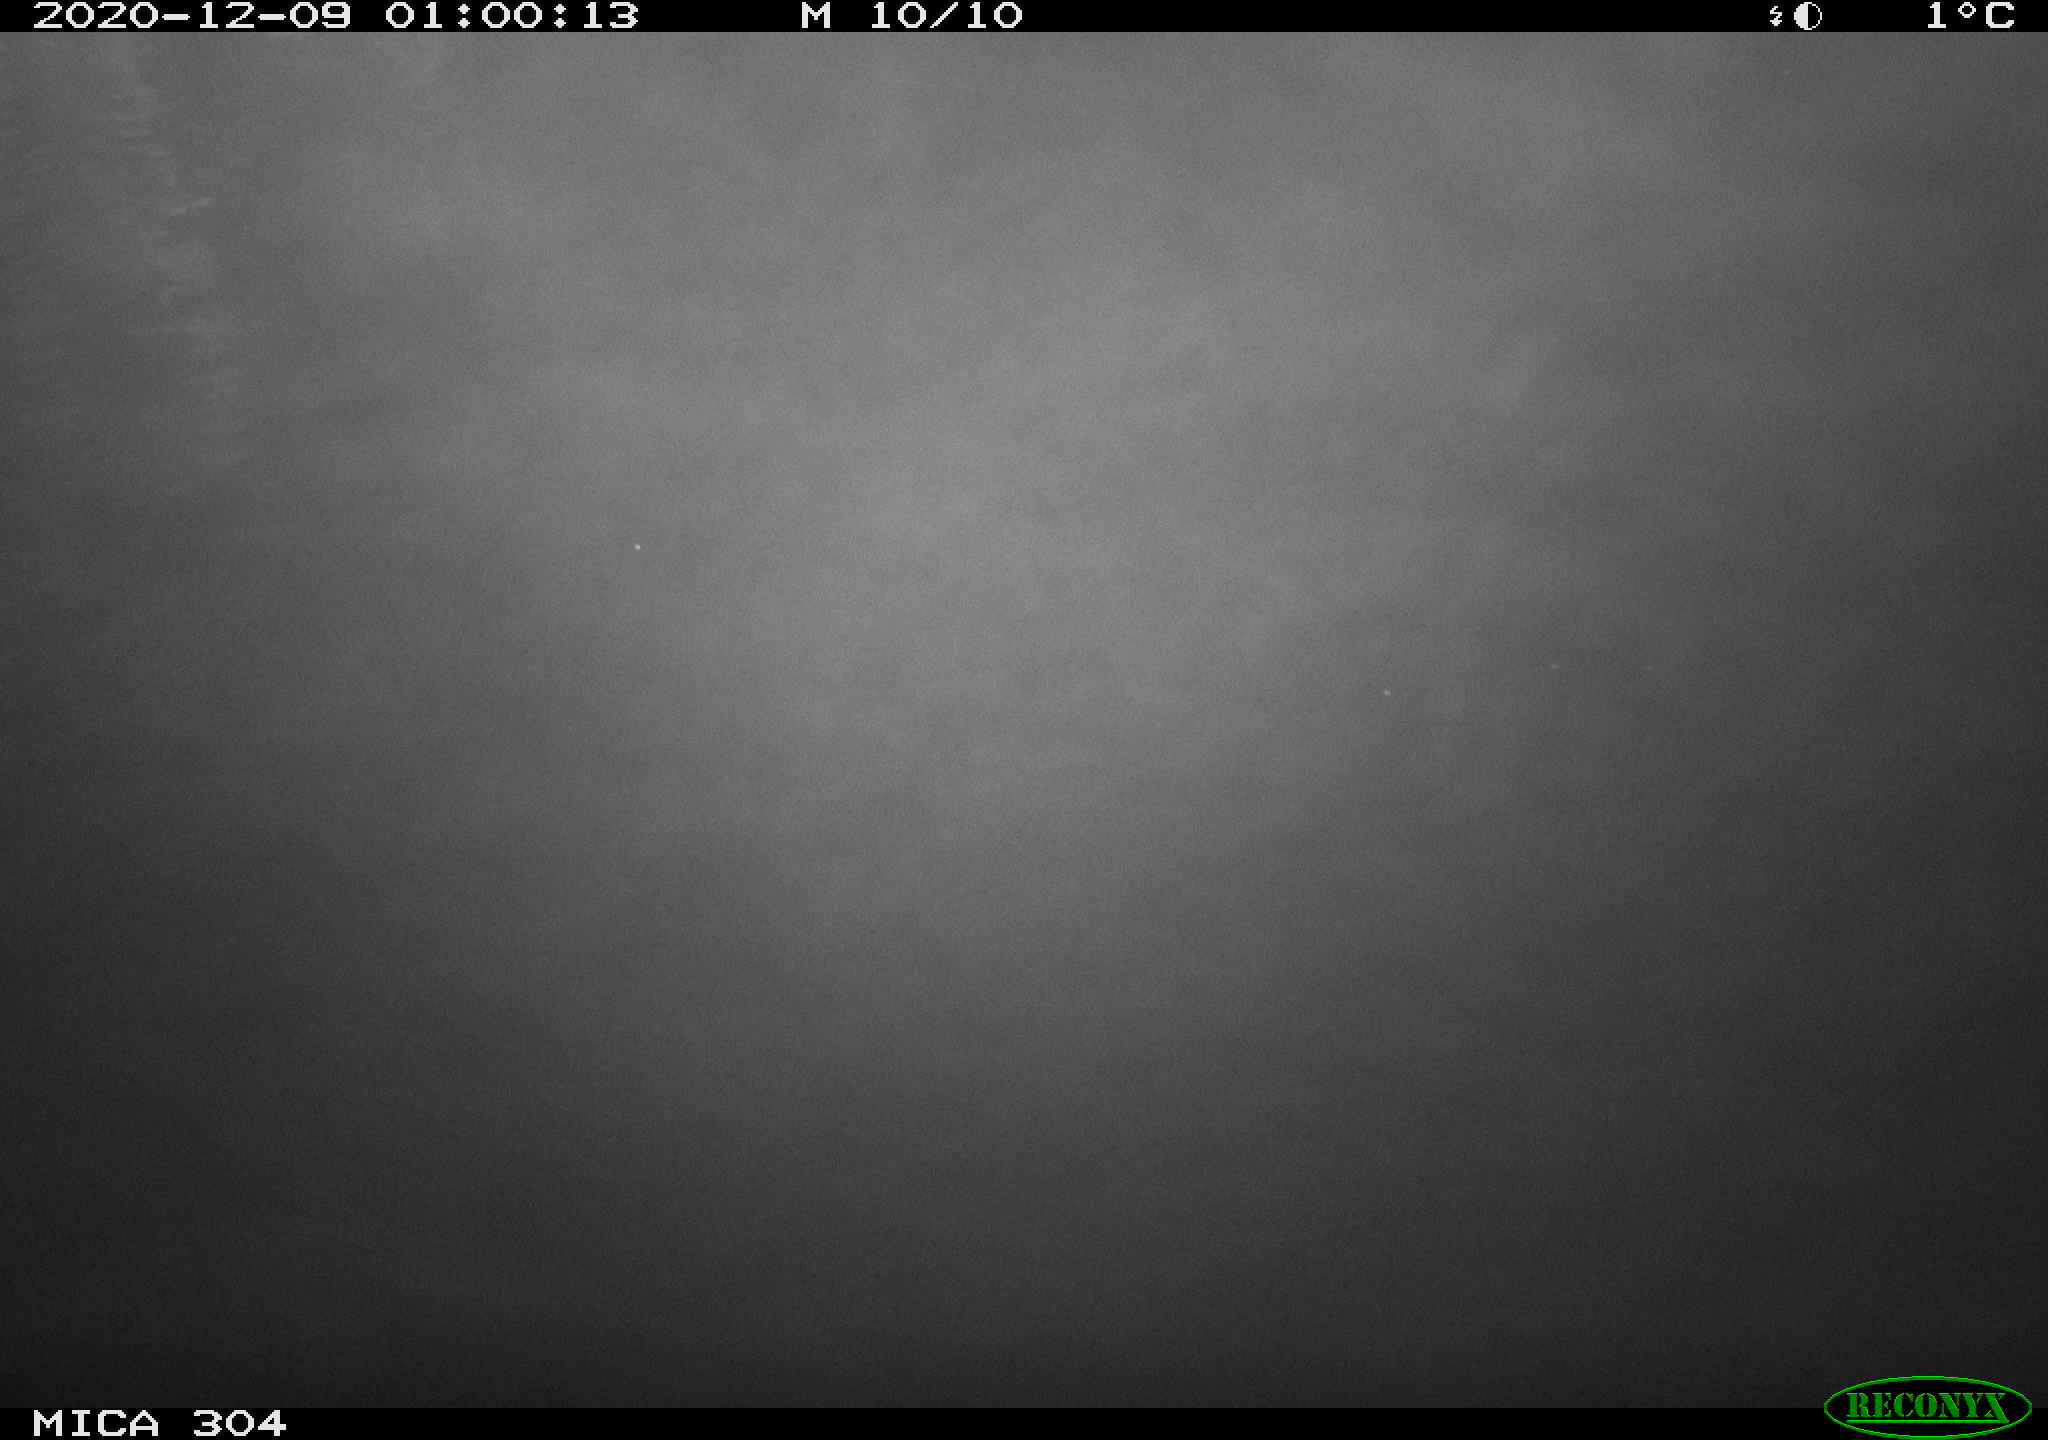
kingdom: Animalia
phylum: Chordata
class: Mammalia
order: Rodentia
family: Muridae
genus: Rattus
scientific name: Rattus norvegicus
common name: Brown rat
